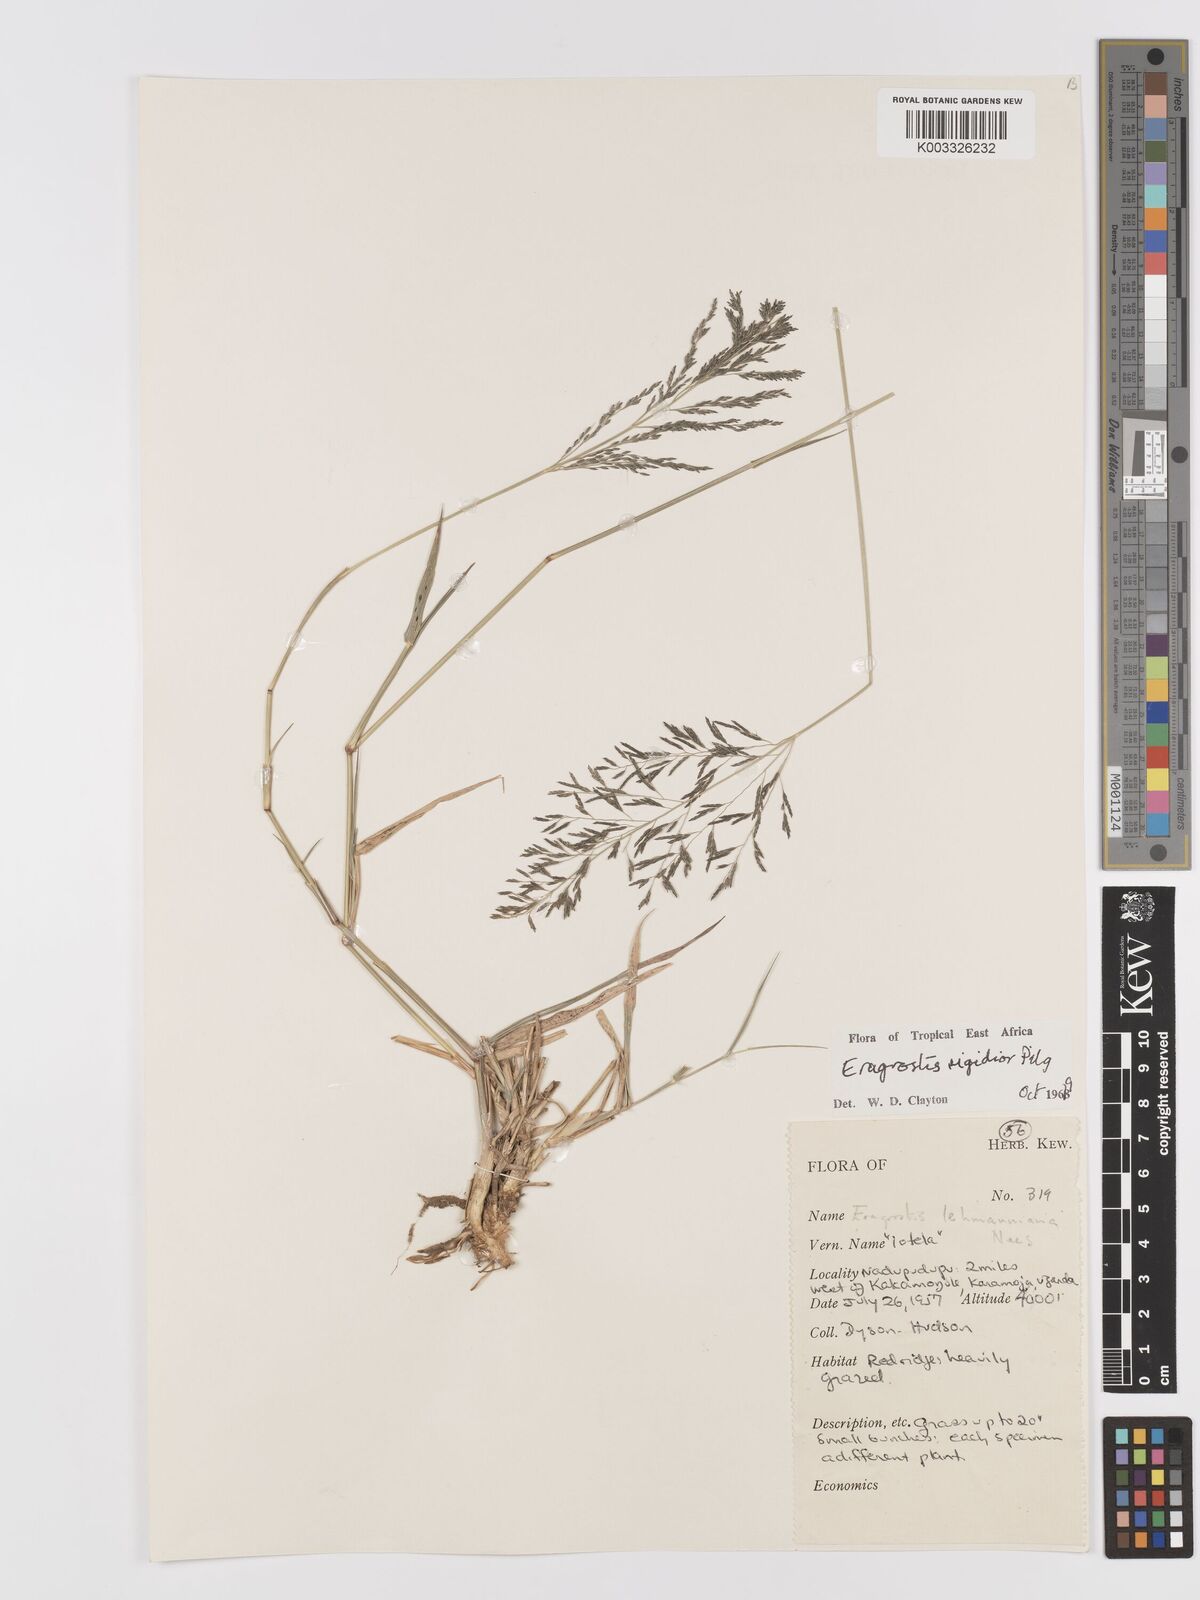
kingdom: Plantae
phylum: Tracheophyta
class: Liliopsida
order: Poales
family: Poaceae
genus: Eragrostis
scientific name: Eragrostis cylindriflora
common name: Cylinderflower lovegrass
